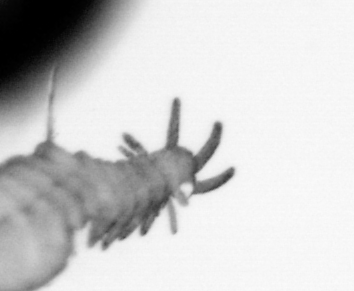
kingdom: Animalia
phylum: Annelida
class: Polychaeta
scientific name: Polychaeta
